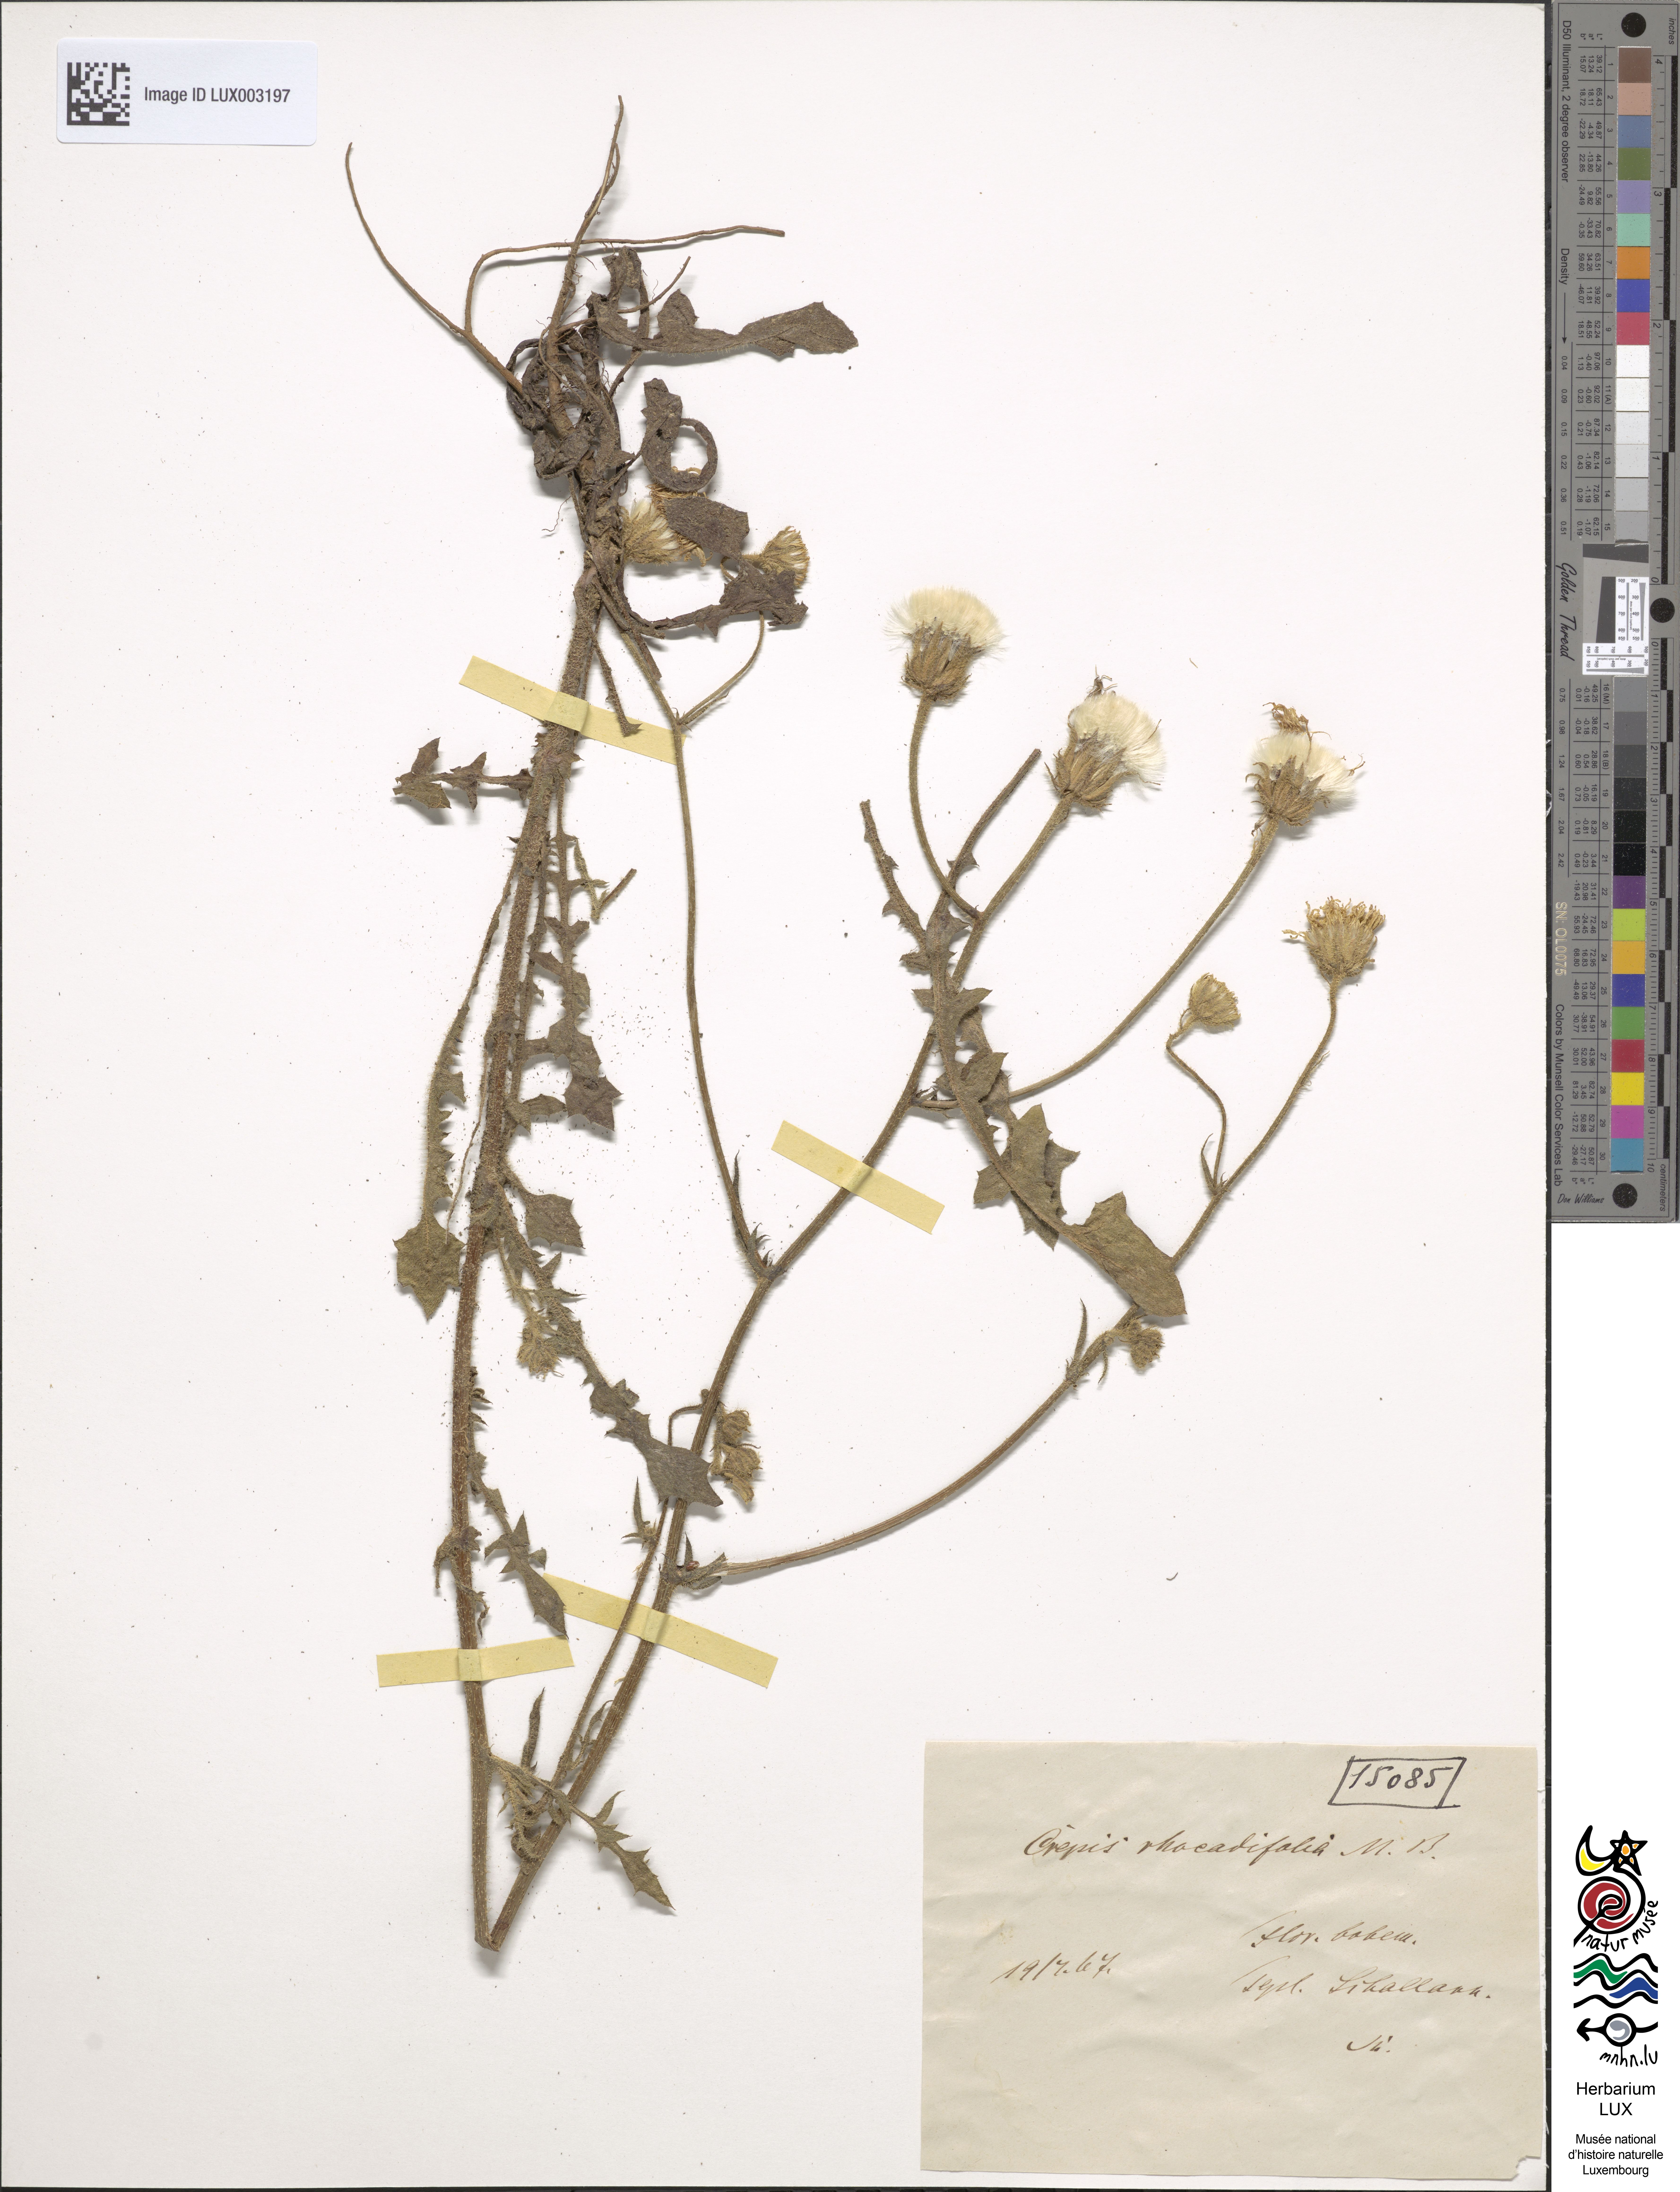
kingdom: Plantae
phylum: Tracheophyta
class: Magnoliopsida
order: Asterales
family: Asteraceae
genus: Crepis
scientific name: Crepis foetida
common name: Stinking hawk's-beard
